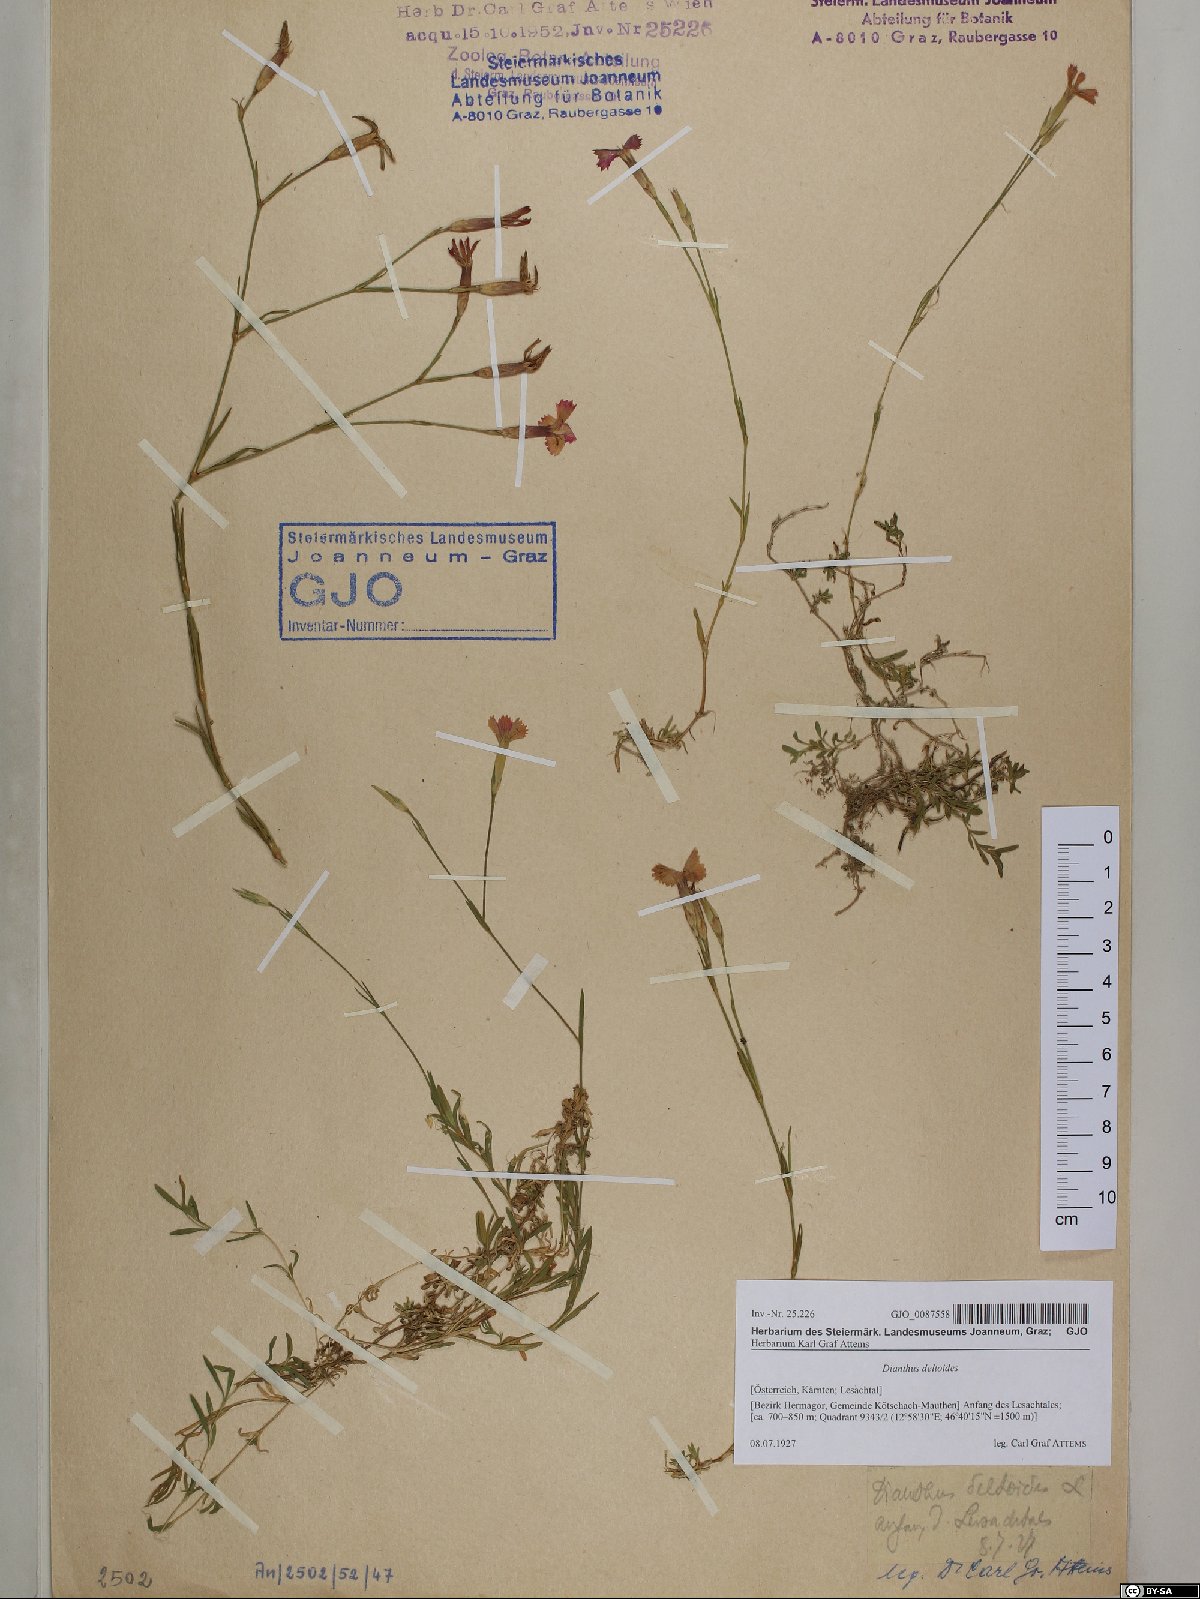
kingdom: Plantae
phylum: Tracheophyta
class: Magnoliopsida
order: Caryophyllales
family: Caryophyllaceae
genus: Dianthus
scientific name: Dianthus deltoides
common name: Maiden pink
